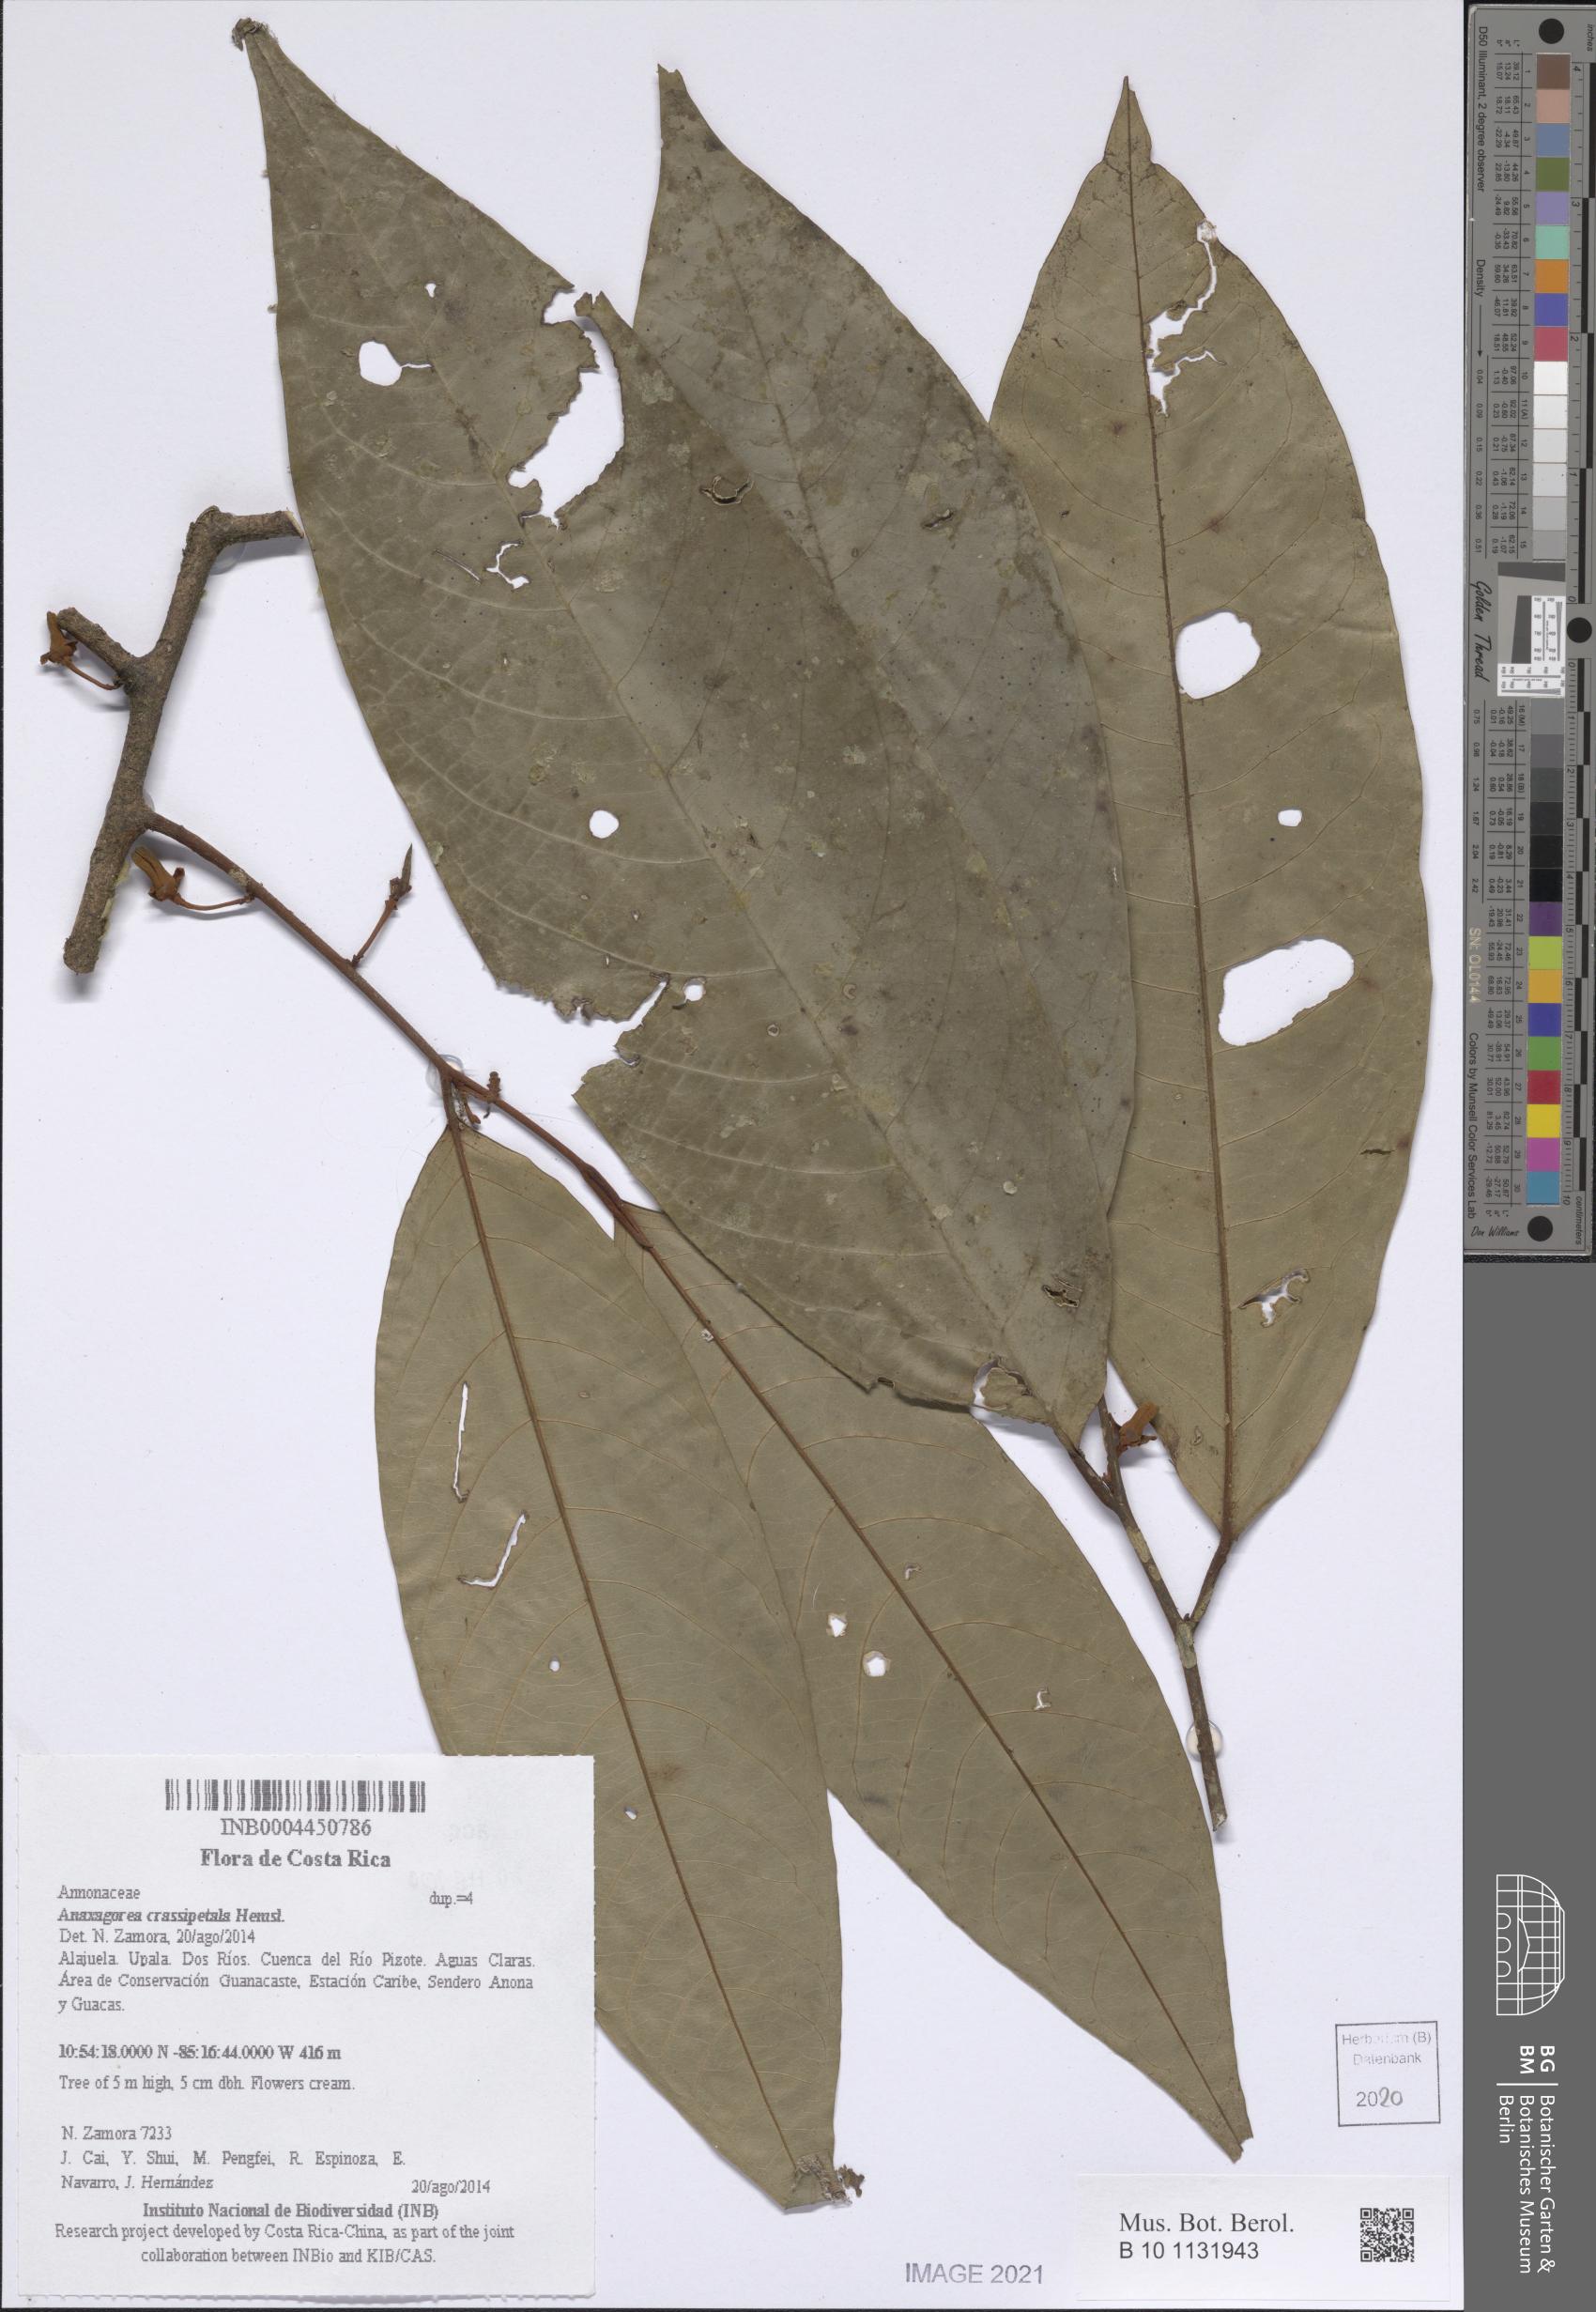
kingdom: Plantae
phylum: Tracheophyta
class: Magnoliopsida
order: Magnoliales
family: Annonaceae
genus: Anaxagorea
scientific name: Anaxagorea crassipetala
